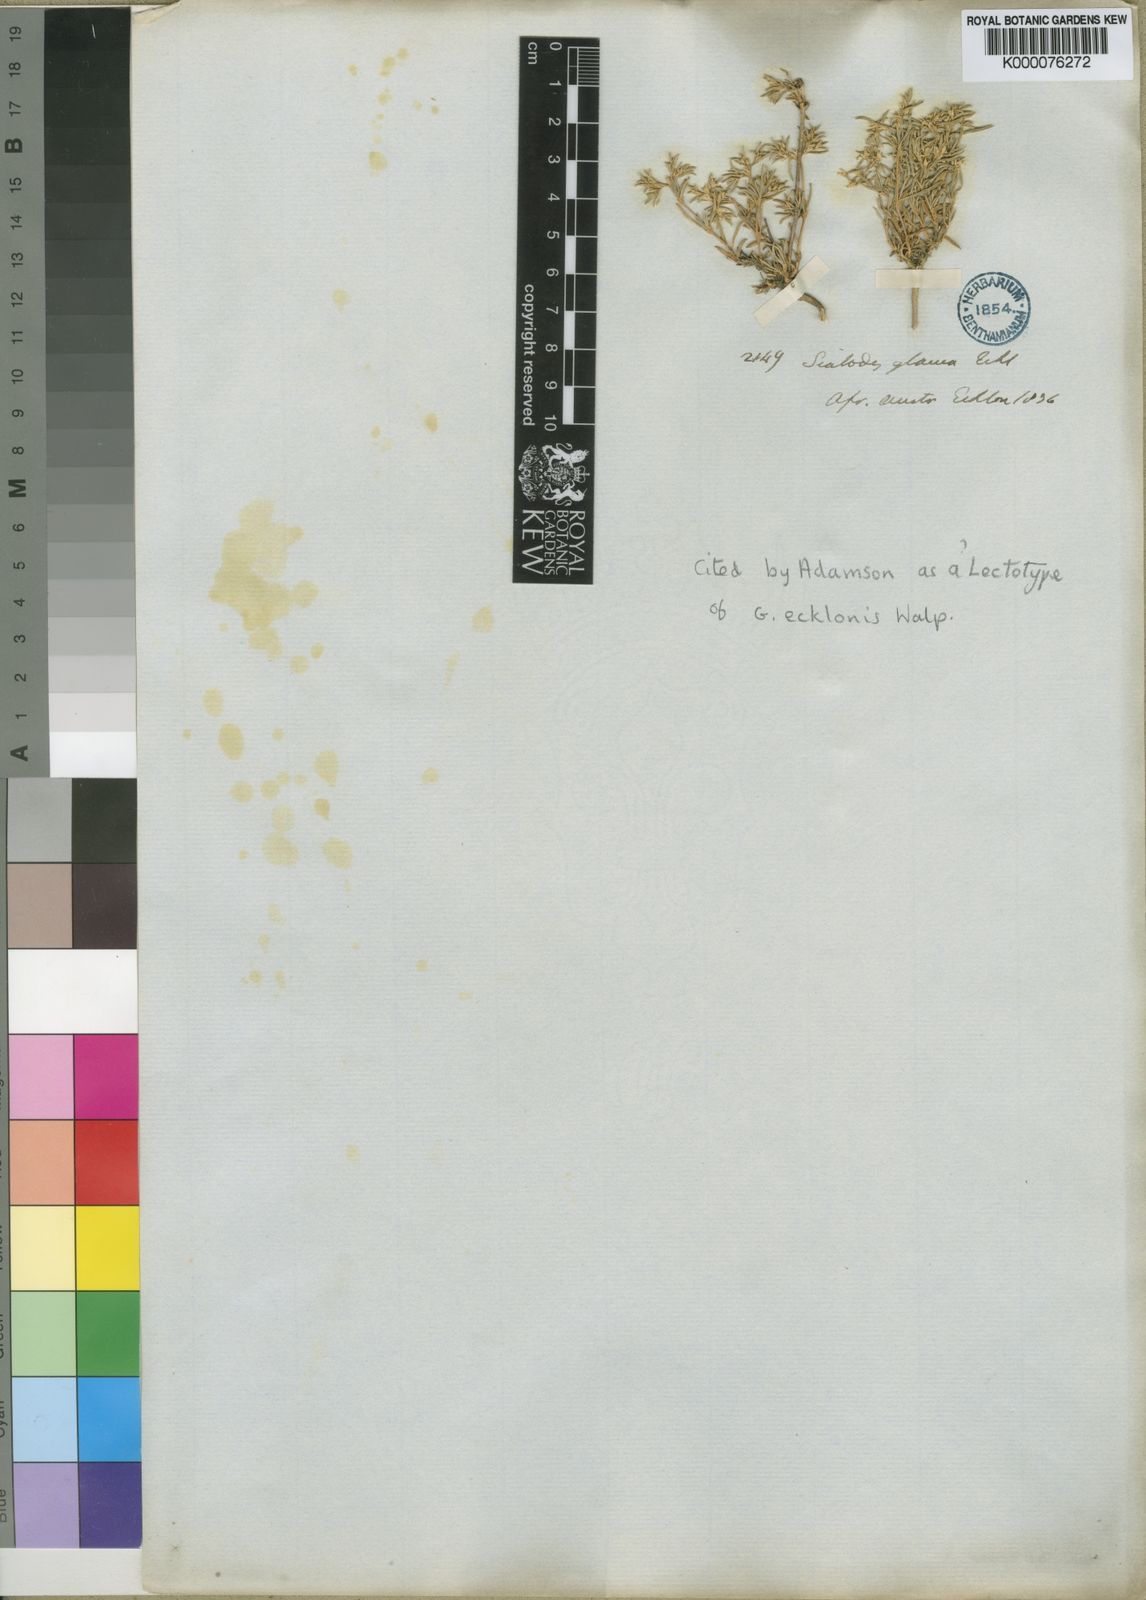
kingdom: Plantae
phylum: Tracheophyta
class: Magnoliopsida
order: Caryophyllales
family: Aizoaceae
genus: Aizoon
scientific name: Aizoon ecklonis
